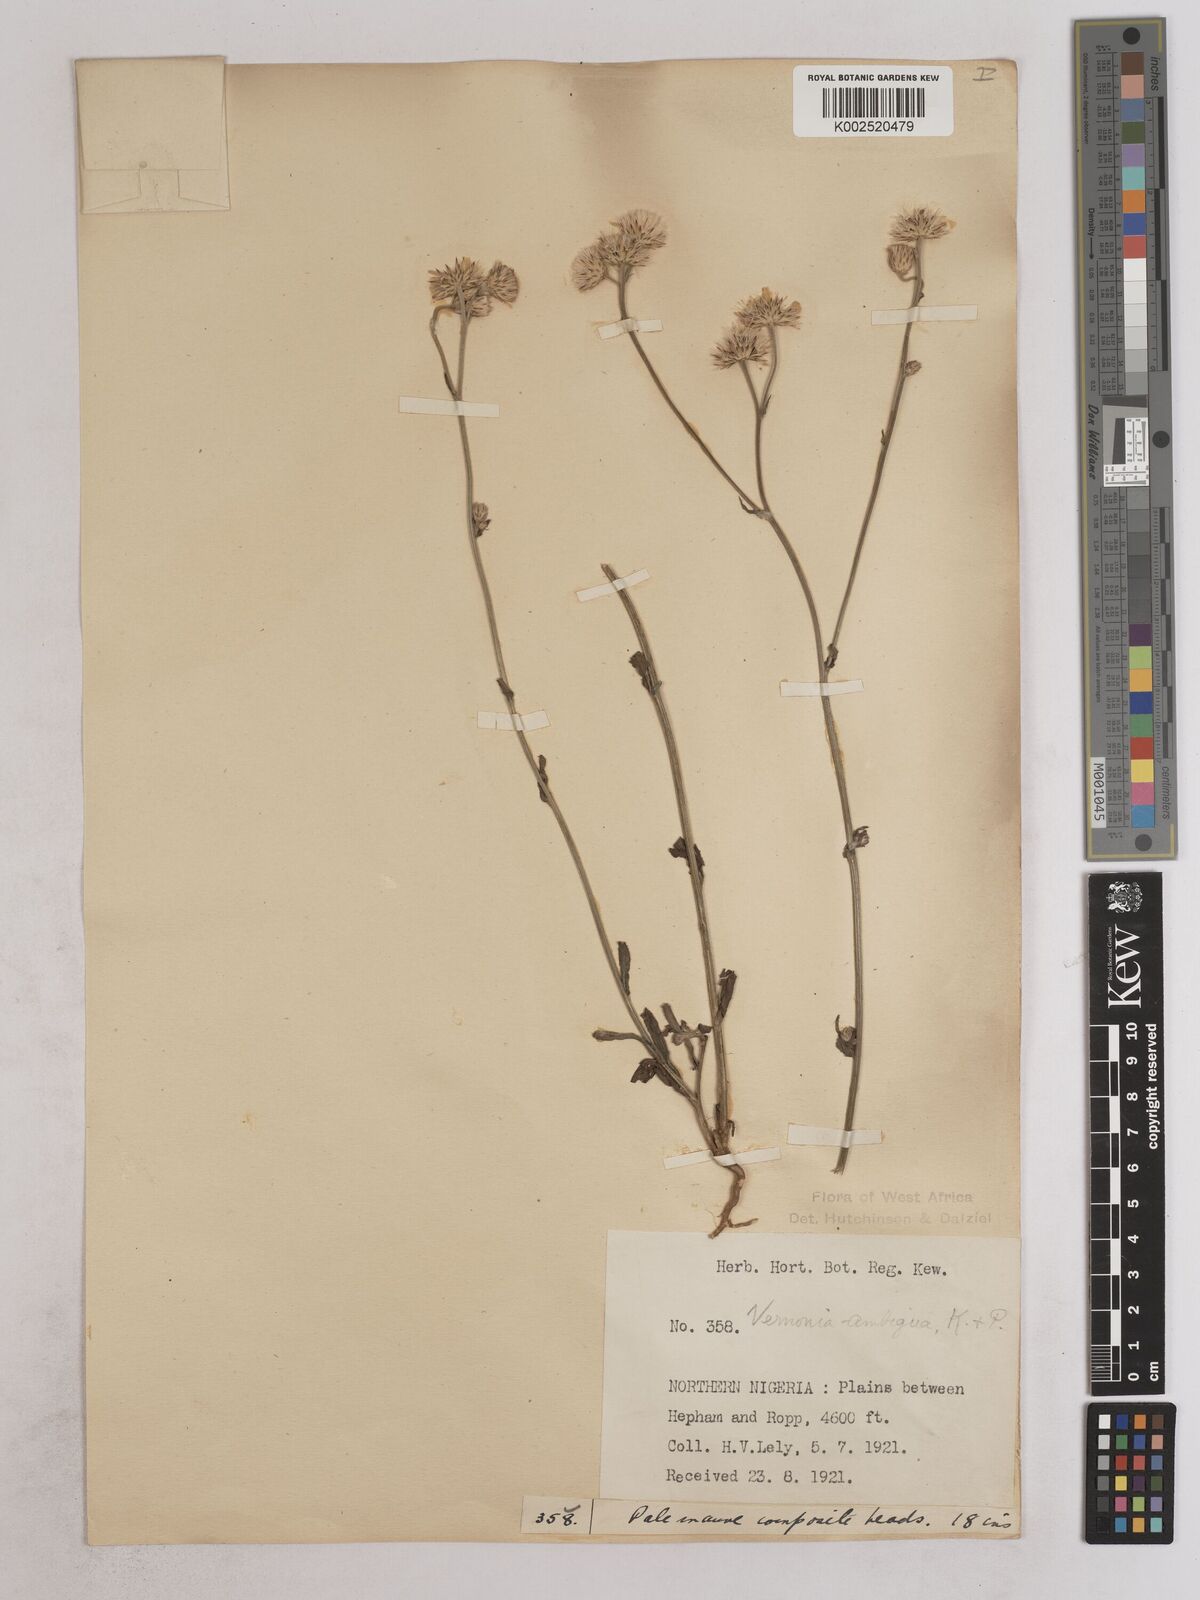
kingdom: Plantae
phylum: Tracheophyta
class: Magnoliopsida
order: Asterales
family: Asteraceae
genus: Vernoniastrum
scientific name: Vernoniastrum ambiguum
